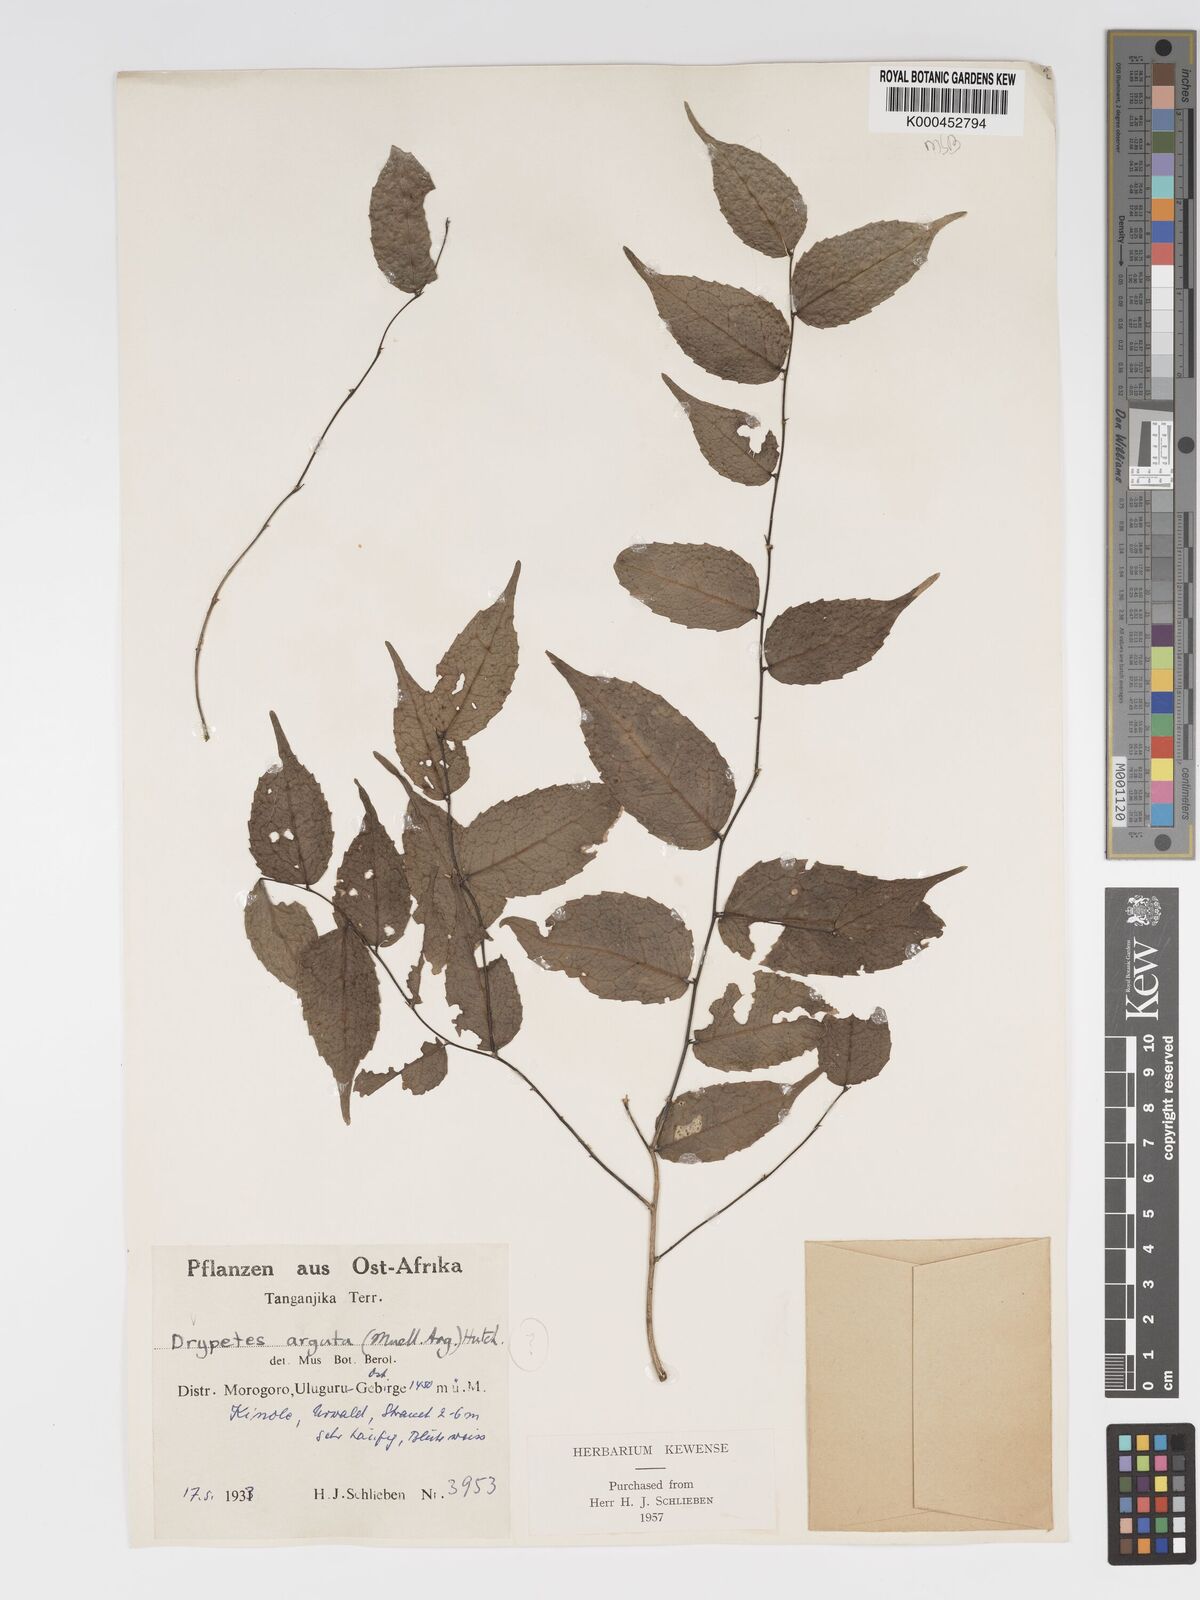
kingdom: Plantae
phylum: Tracheophyta
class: Magnoliopsida
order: Malpighiales
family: Putranjivaceae
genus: Drypetes
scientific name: Drypetes
